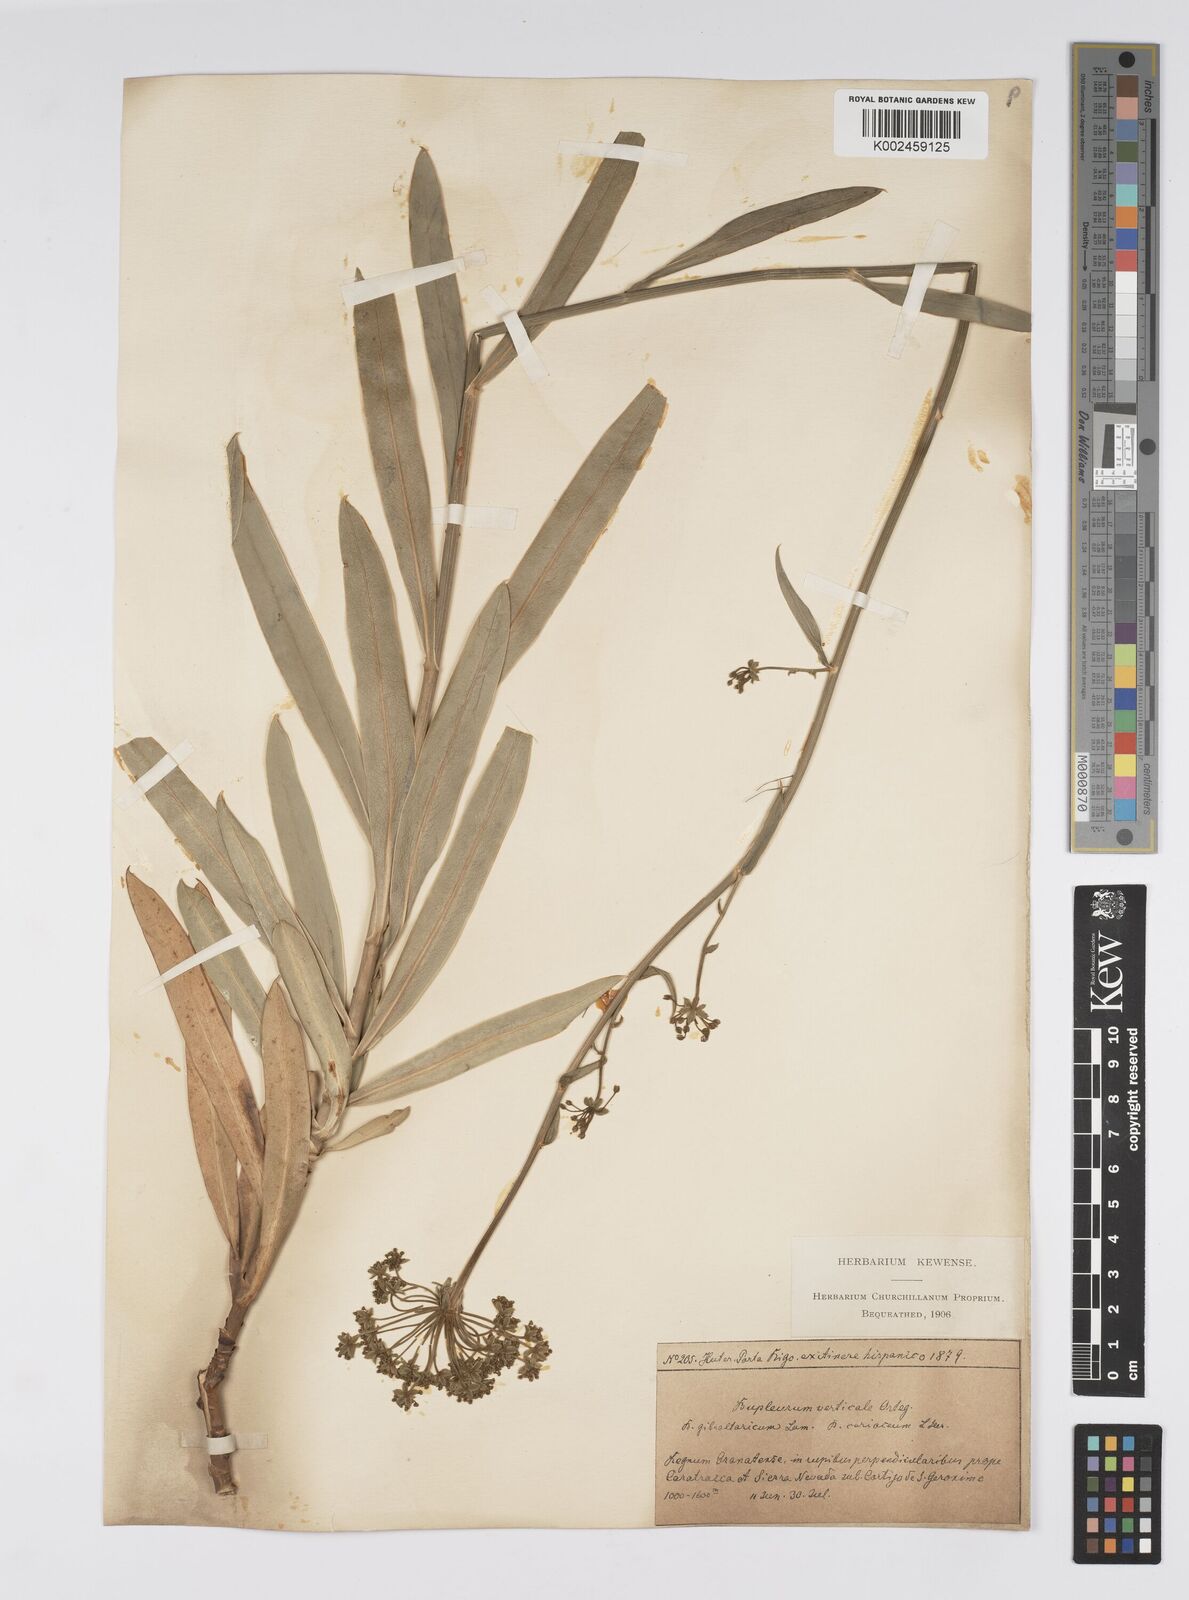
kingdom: Plantae
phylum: Tracheophyta
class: Magnoliopsida
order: Apiales
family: Apiaceae
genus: Bupleurum
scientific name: Bupleurum gibraltaricum
